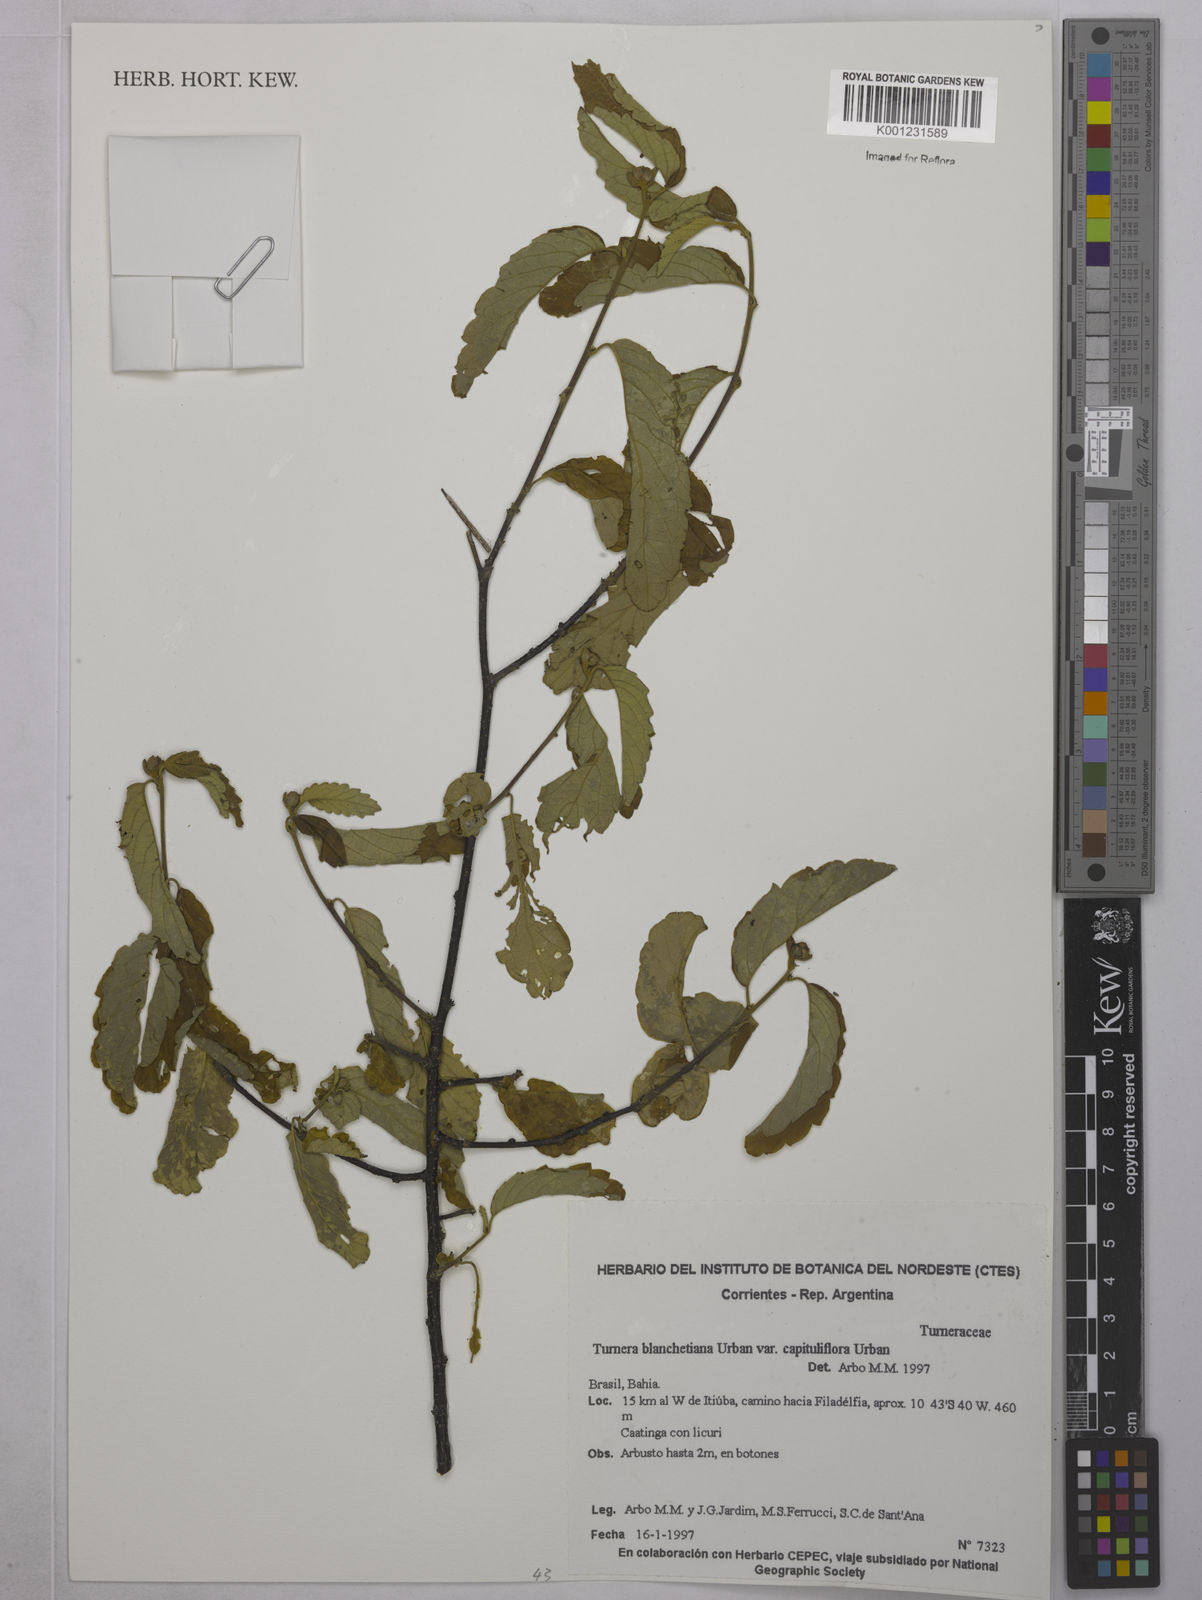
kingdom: Plantae
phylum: Tracheophyta
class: Magnoliopsida
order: Malpighiales
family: Turneraceae
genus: Turnera
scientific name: Turnera blanchetiana
